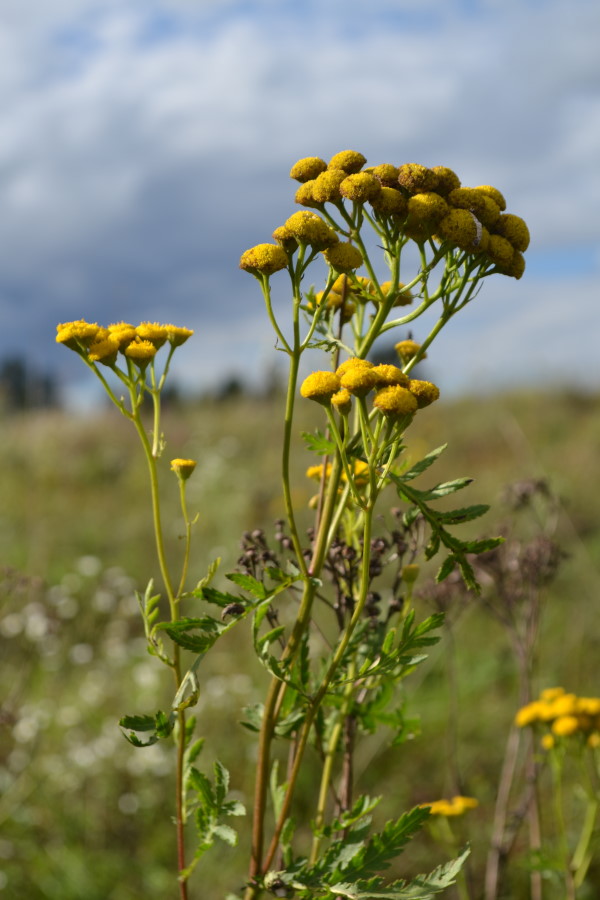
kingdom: Plantae
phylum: Tracheophyta
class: Magnoliopsida
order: Asterales
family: Asteraceae
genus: Tanacetum
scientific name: Tanacetum vulgare
